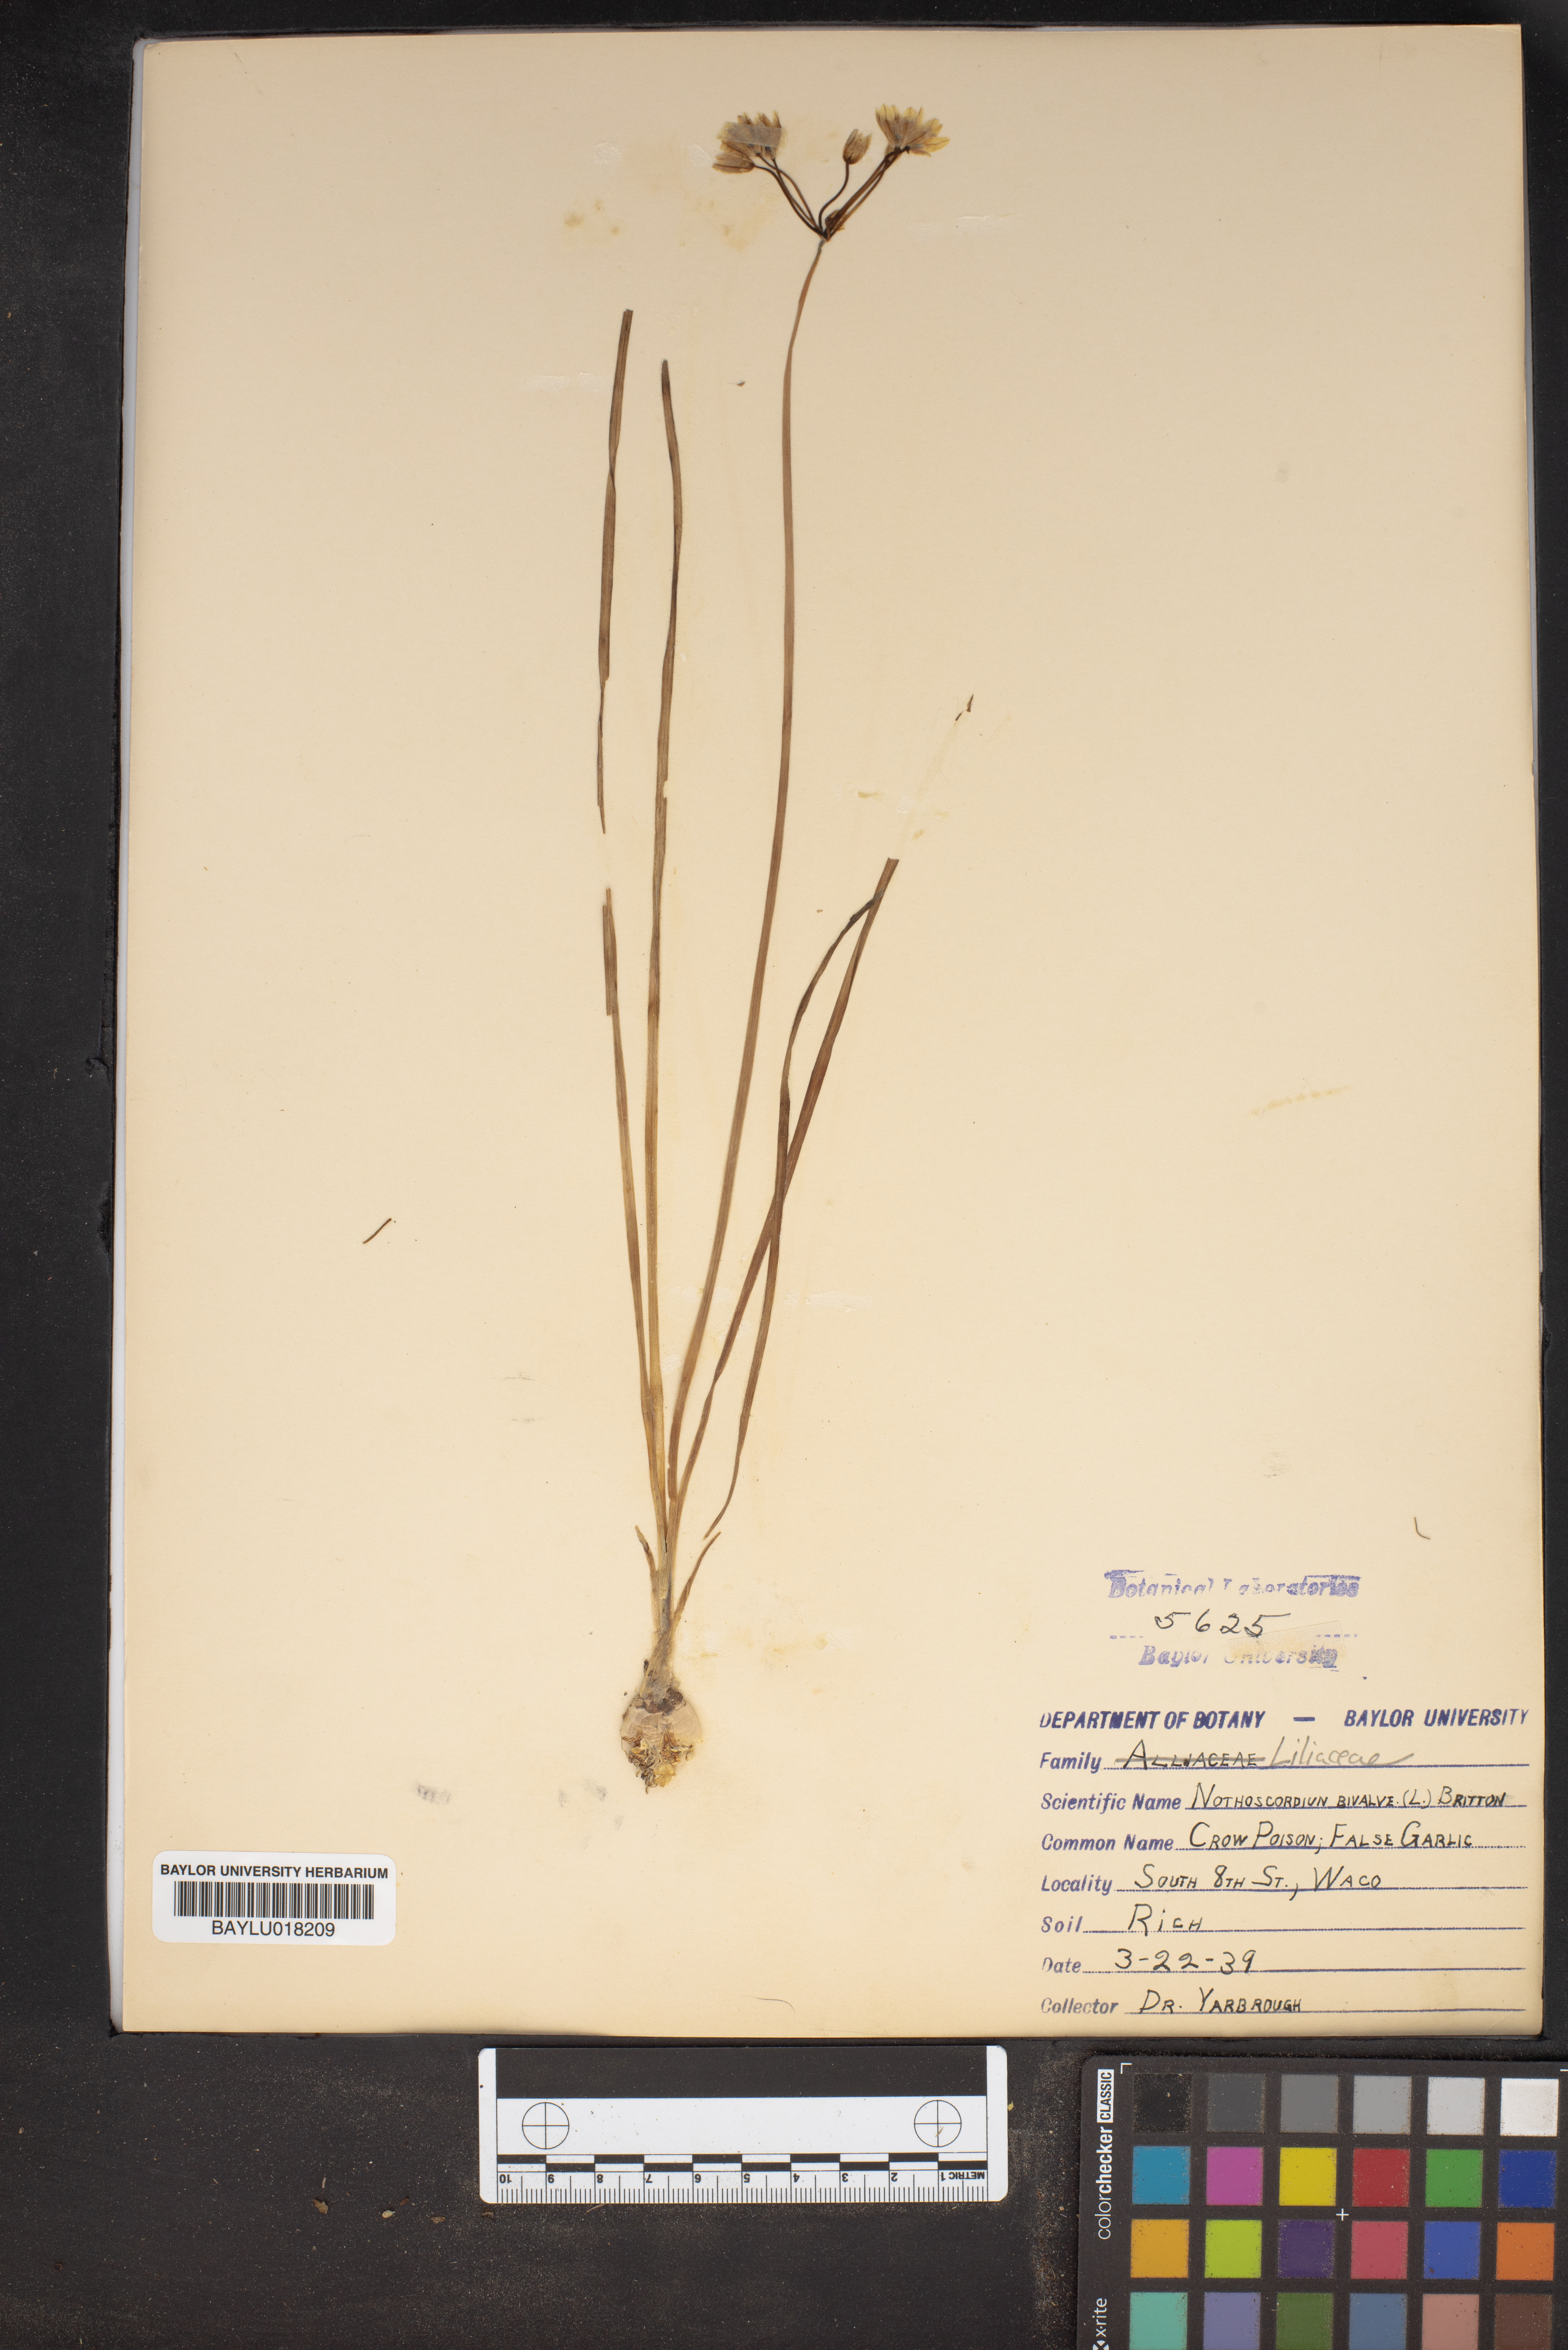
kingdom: Plantae
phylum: Tracheophyta
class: Liliopsida
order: Asparagales
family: Amaryllidaceae
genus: Nothoscordum
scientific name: Nothoscordum bivalve
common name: Crow-poison
